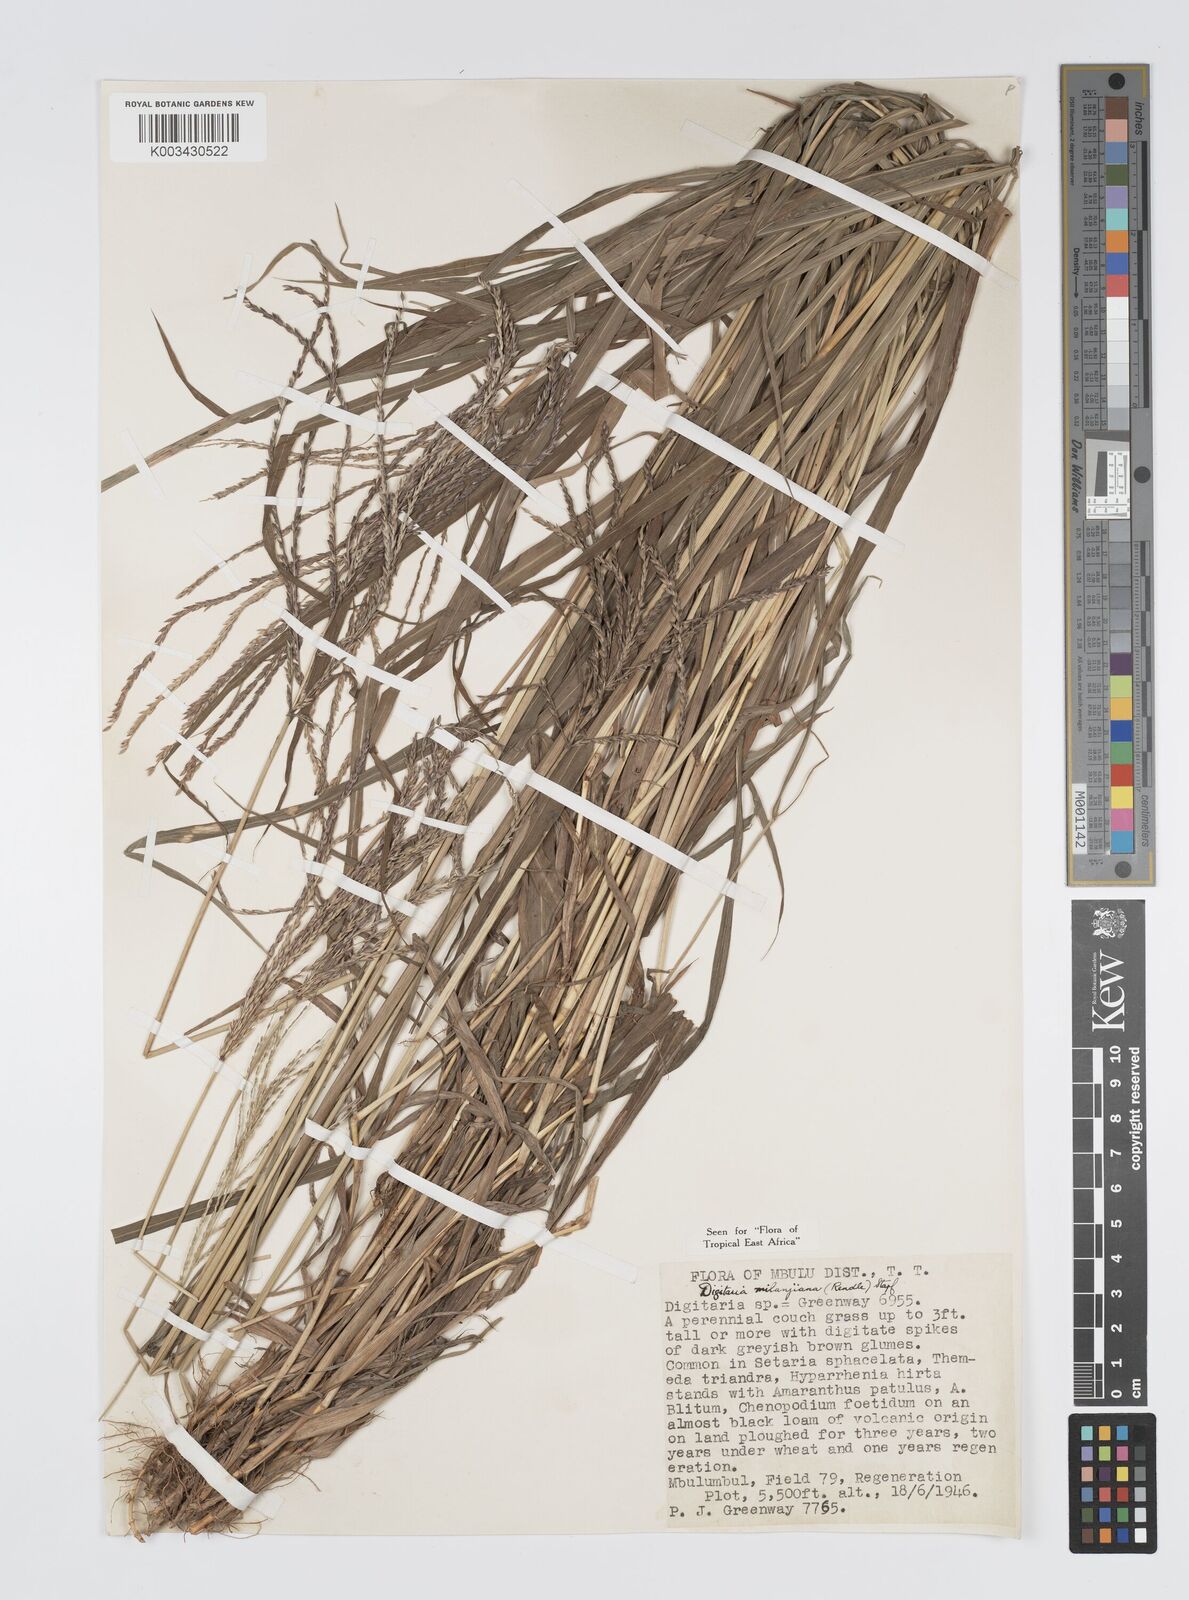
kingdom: Plantae
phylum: Tracheophyta
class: Liliopsida
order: Poales
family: Poaceae
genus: Digitaria
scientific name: Digitaria milanjiana
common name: Madagascar crabgrass
